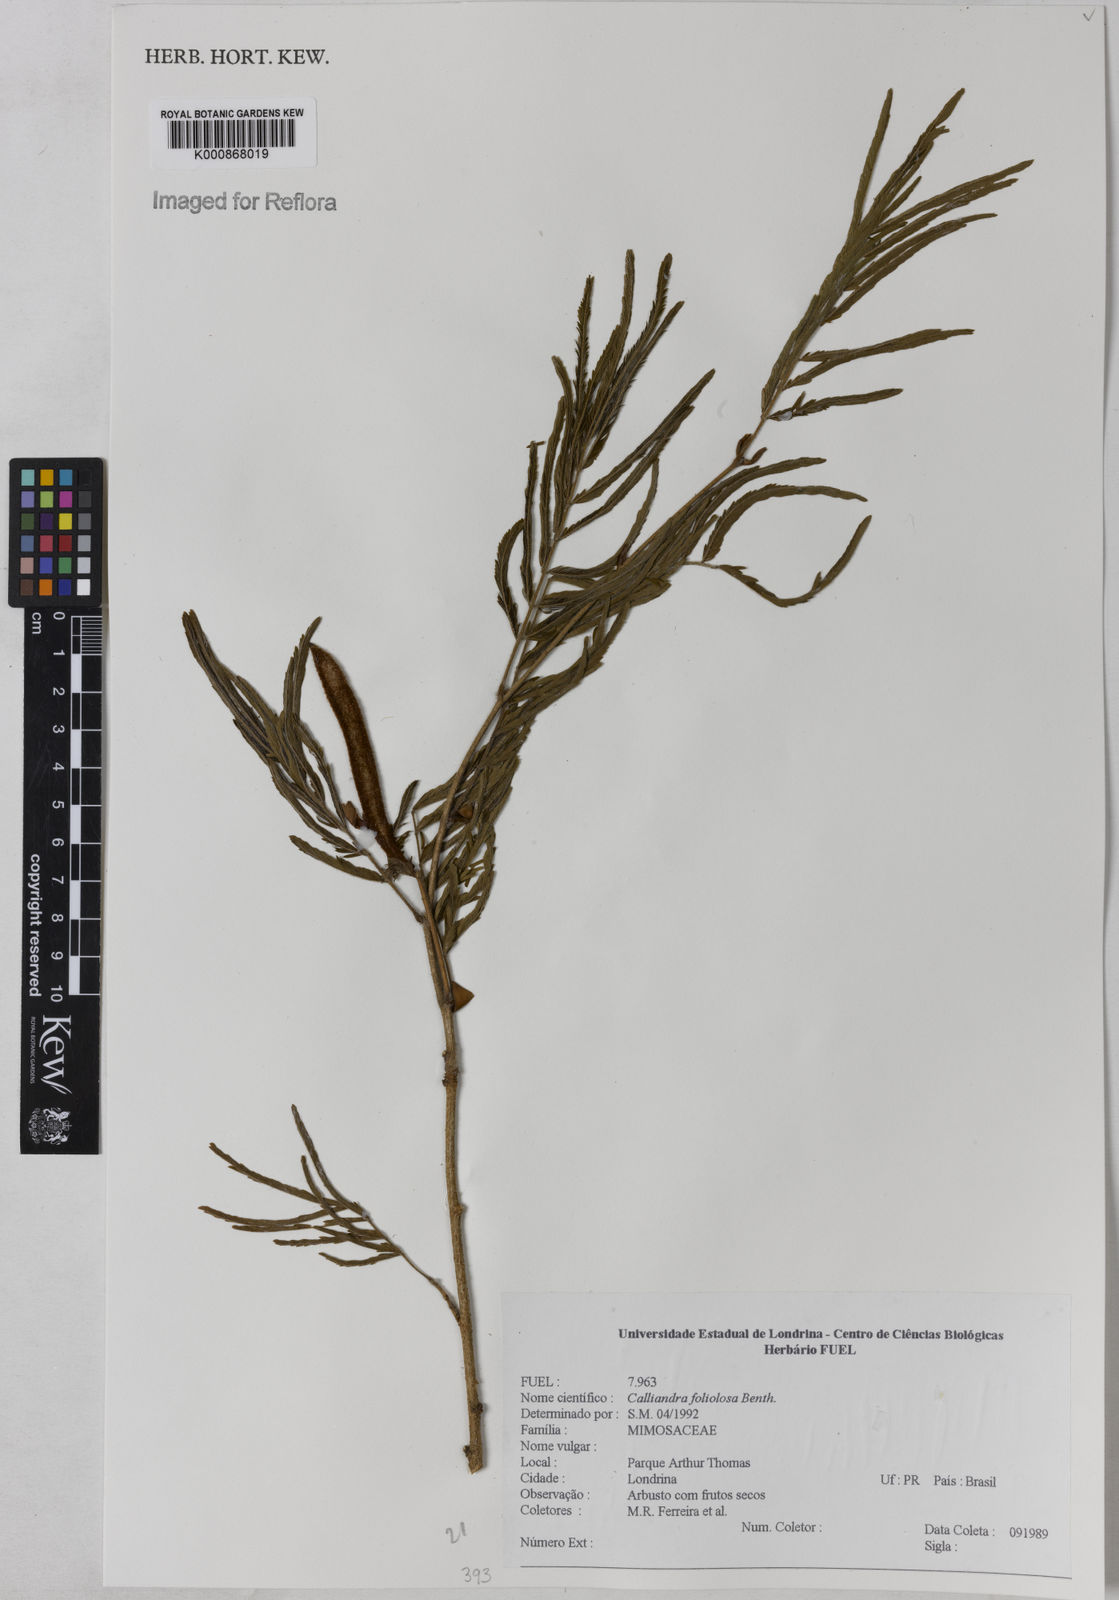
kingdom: Plantae
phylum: Tracheophyta
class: Magnoliopsida
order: Fabales
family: Fabaceae
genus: Calliandra
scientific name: Calliandra foliolosa
